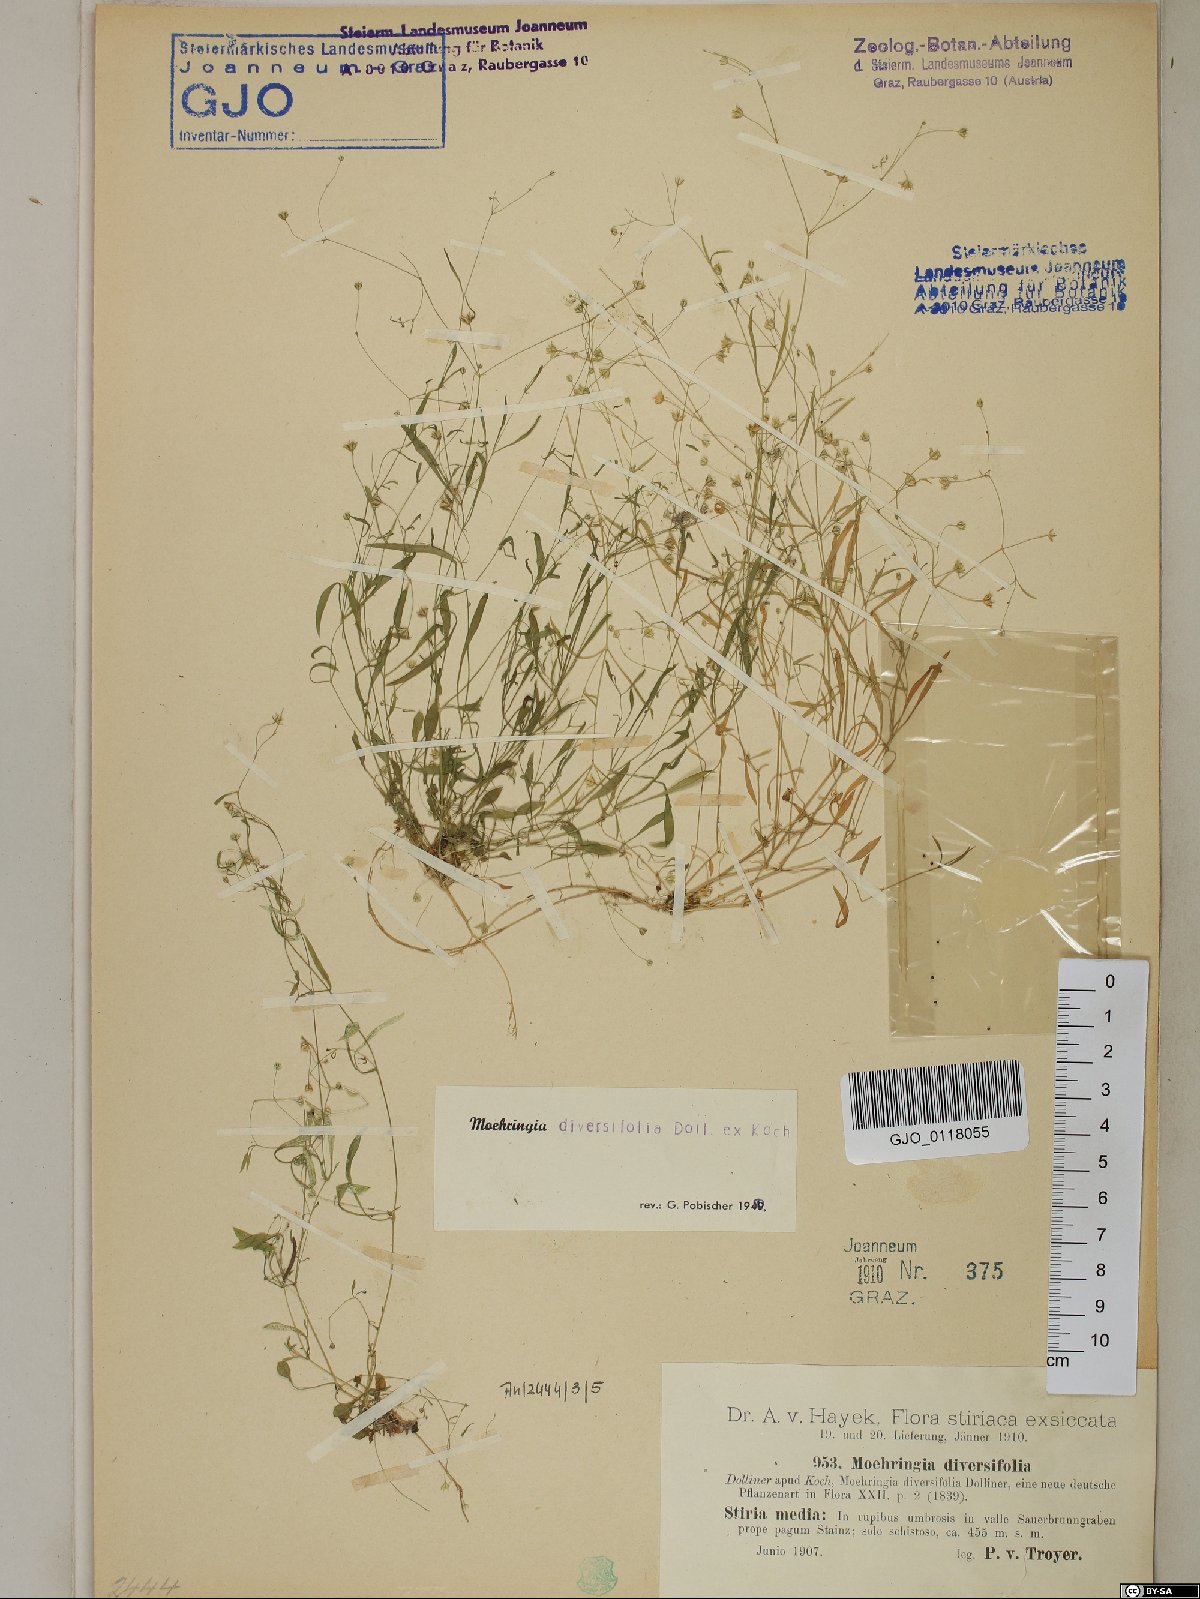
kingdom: Plantae
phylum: Tracheophyta
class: Magnoliopsida
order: Caryophyllales
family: Caryophyllaceae
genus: Moehringia
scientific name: Moehringia diversifolia
